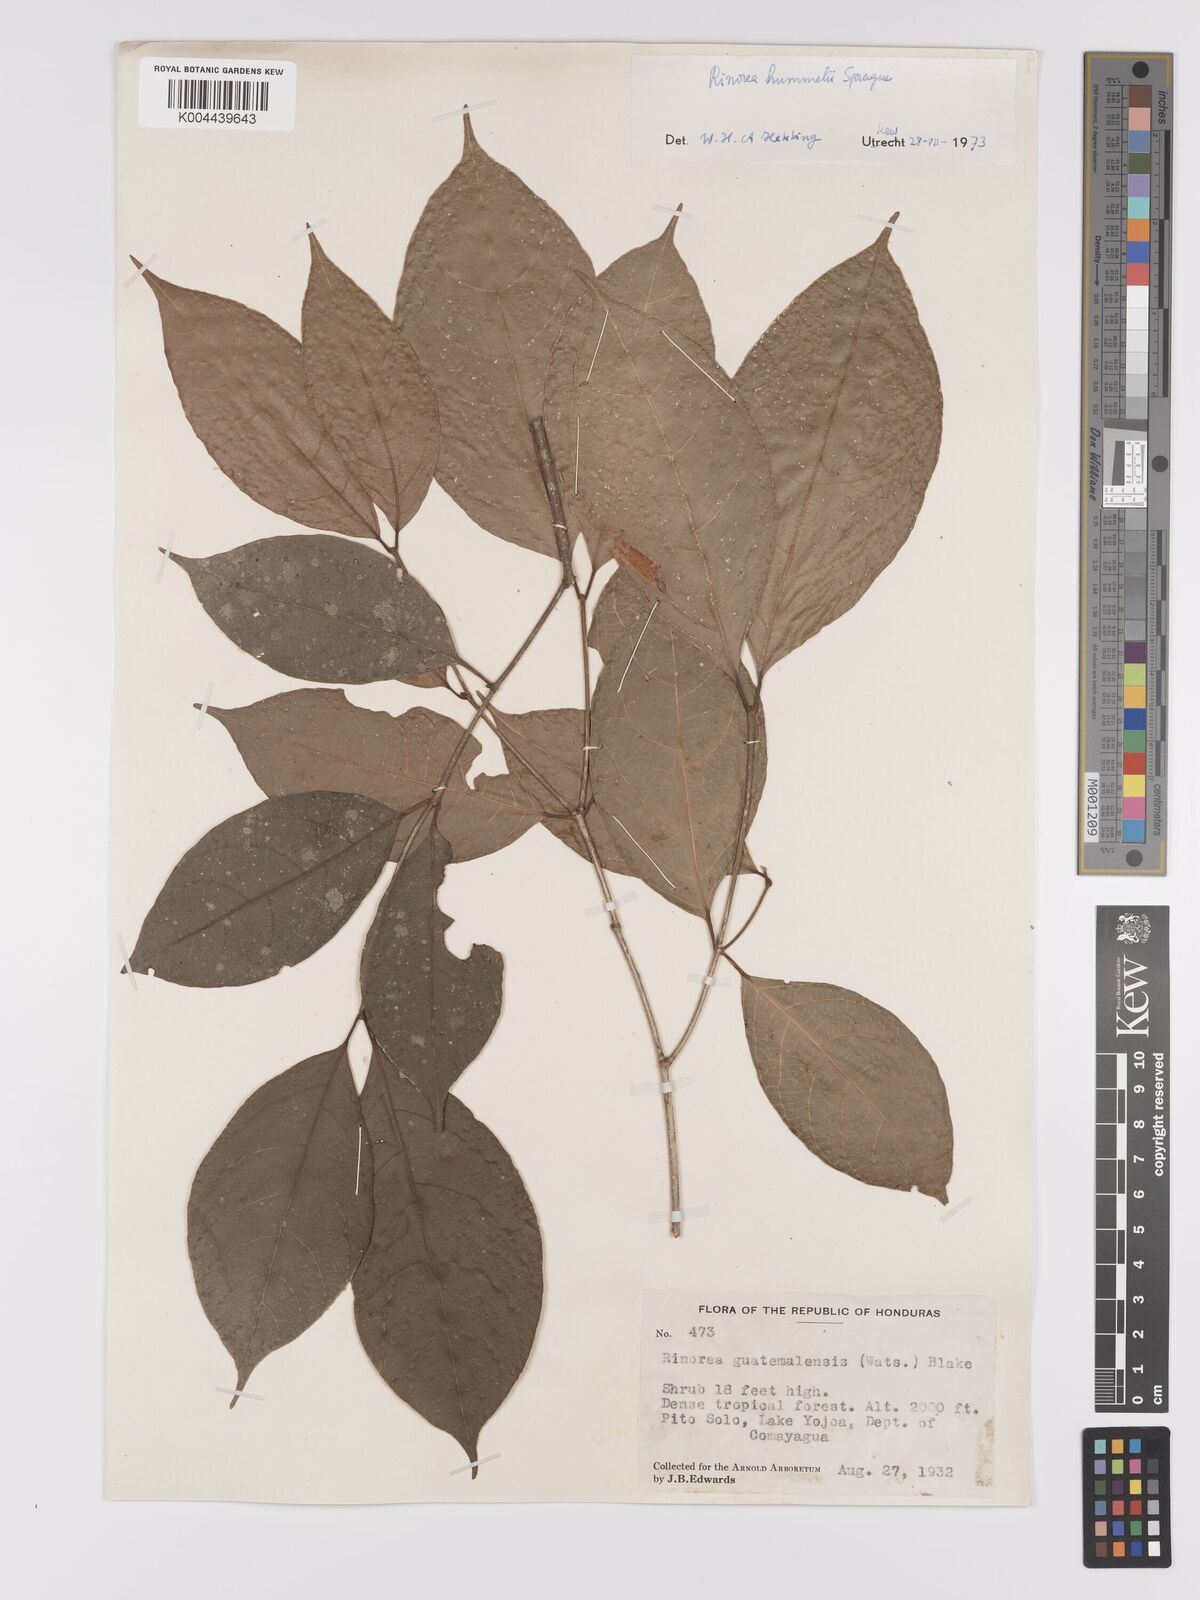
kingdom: Plantae
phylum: Tracheophyta
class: Magnoliopsida
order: Malpighiales
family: Violaceae
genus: Rinorea
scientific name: Rinorea hummelii
